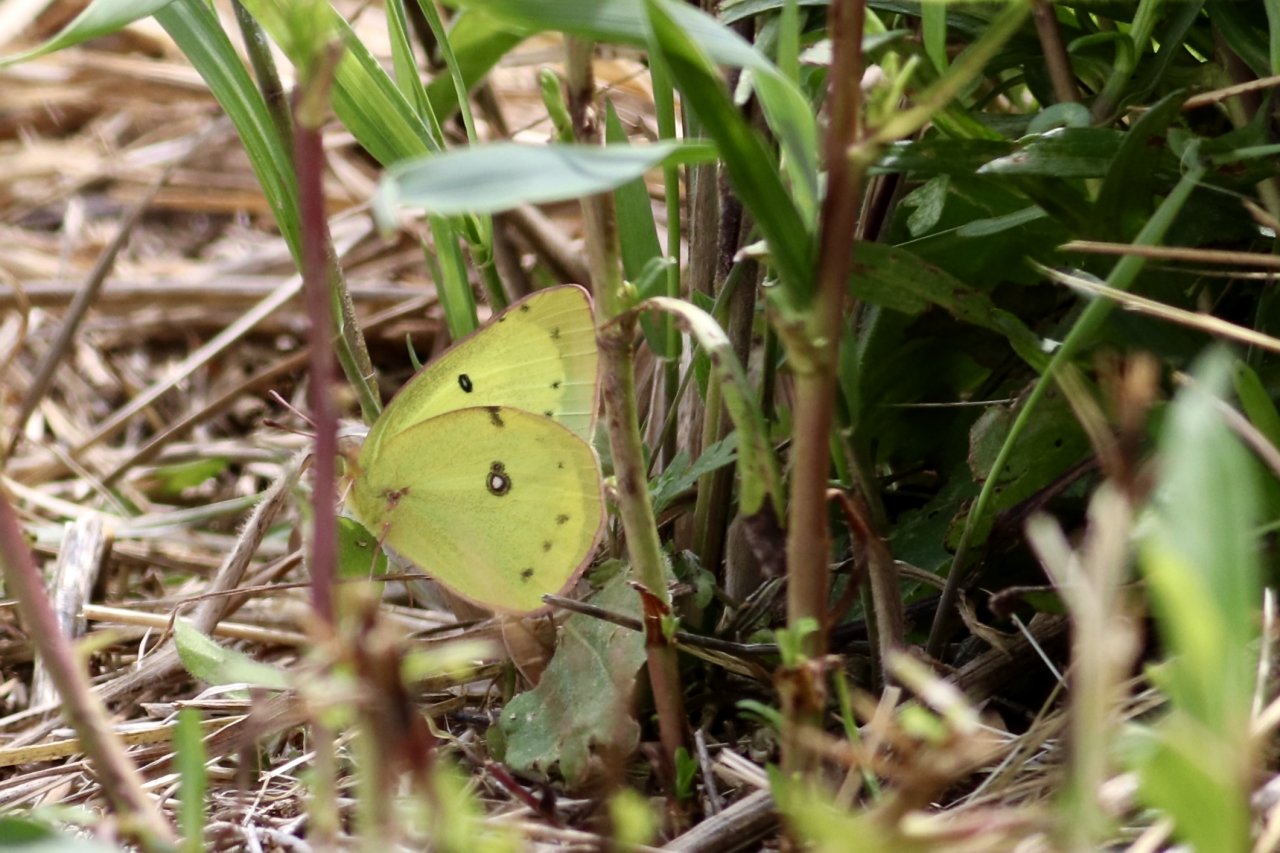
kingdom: Animalia
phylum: Arthropoda
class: Insecta
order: Lepidoptera
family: Pieridae
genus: Colias
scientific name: Colias philodice
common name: Clouded Sulphur
